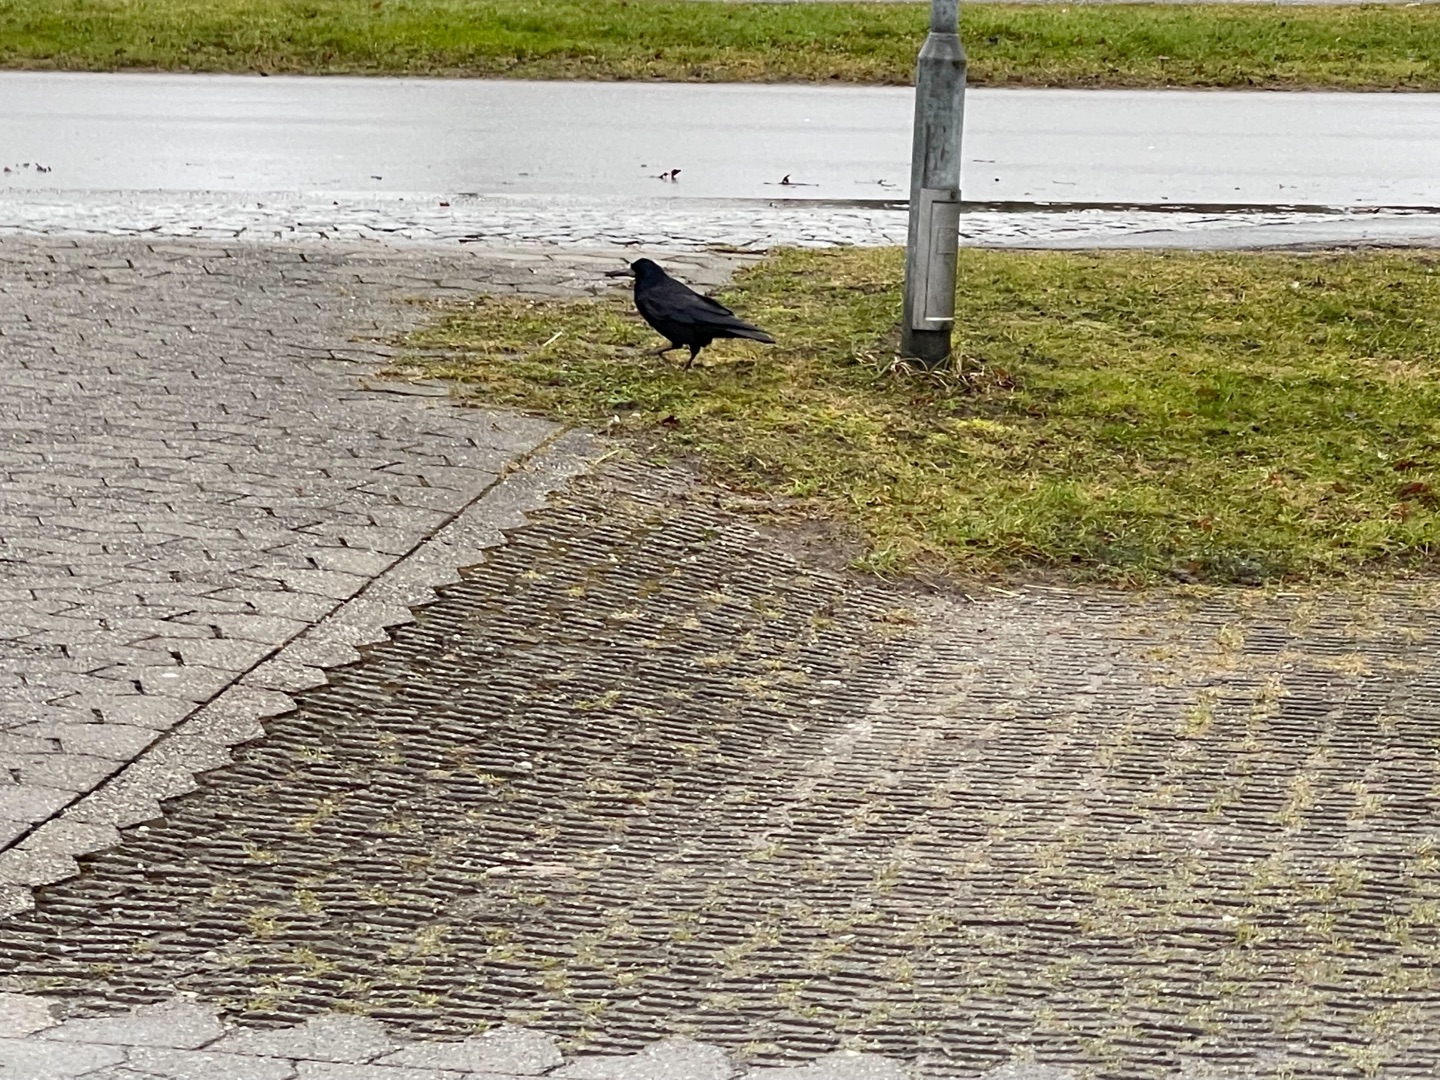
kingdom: Animalia
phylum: Chordata
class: Aves
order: Passeriformes
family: Corvidae
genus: Corvus
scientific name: Corvus frugilegus
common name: Råge
